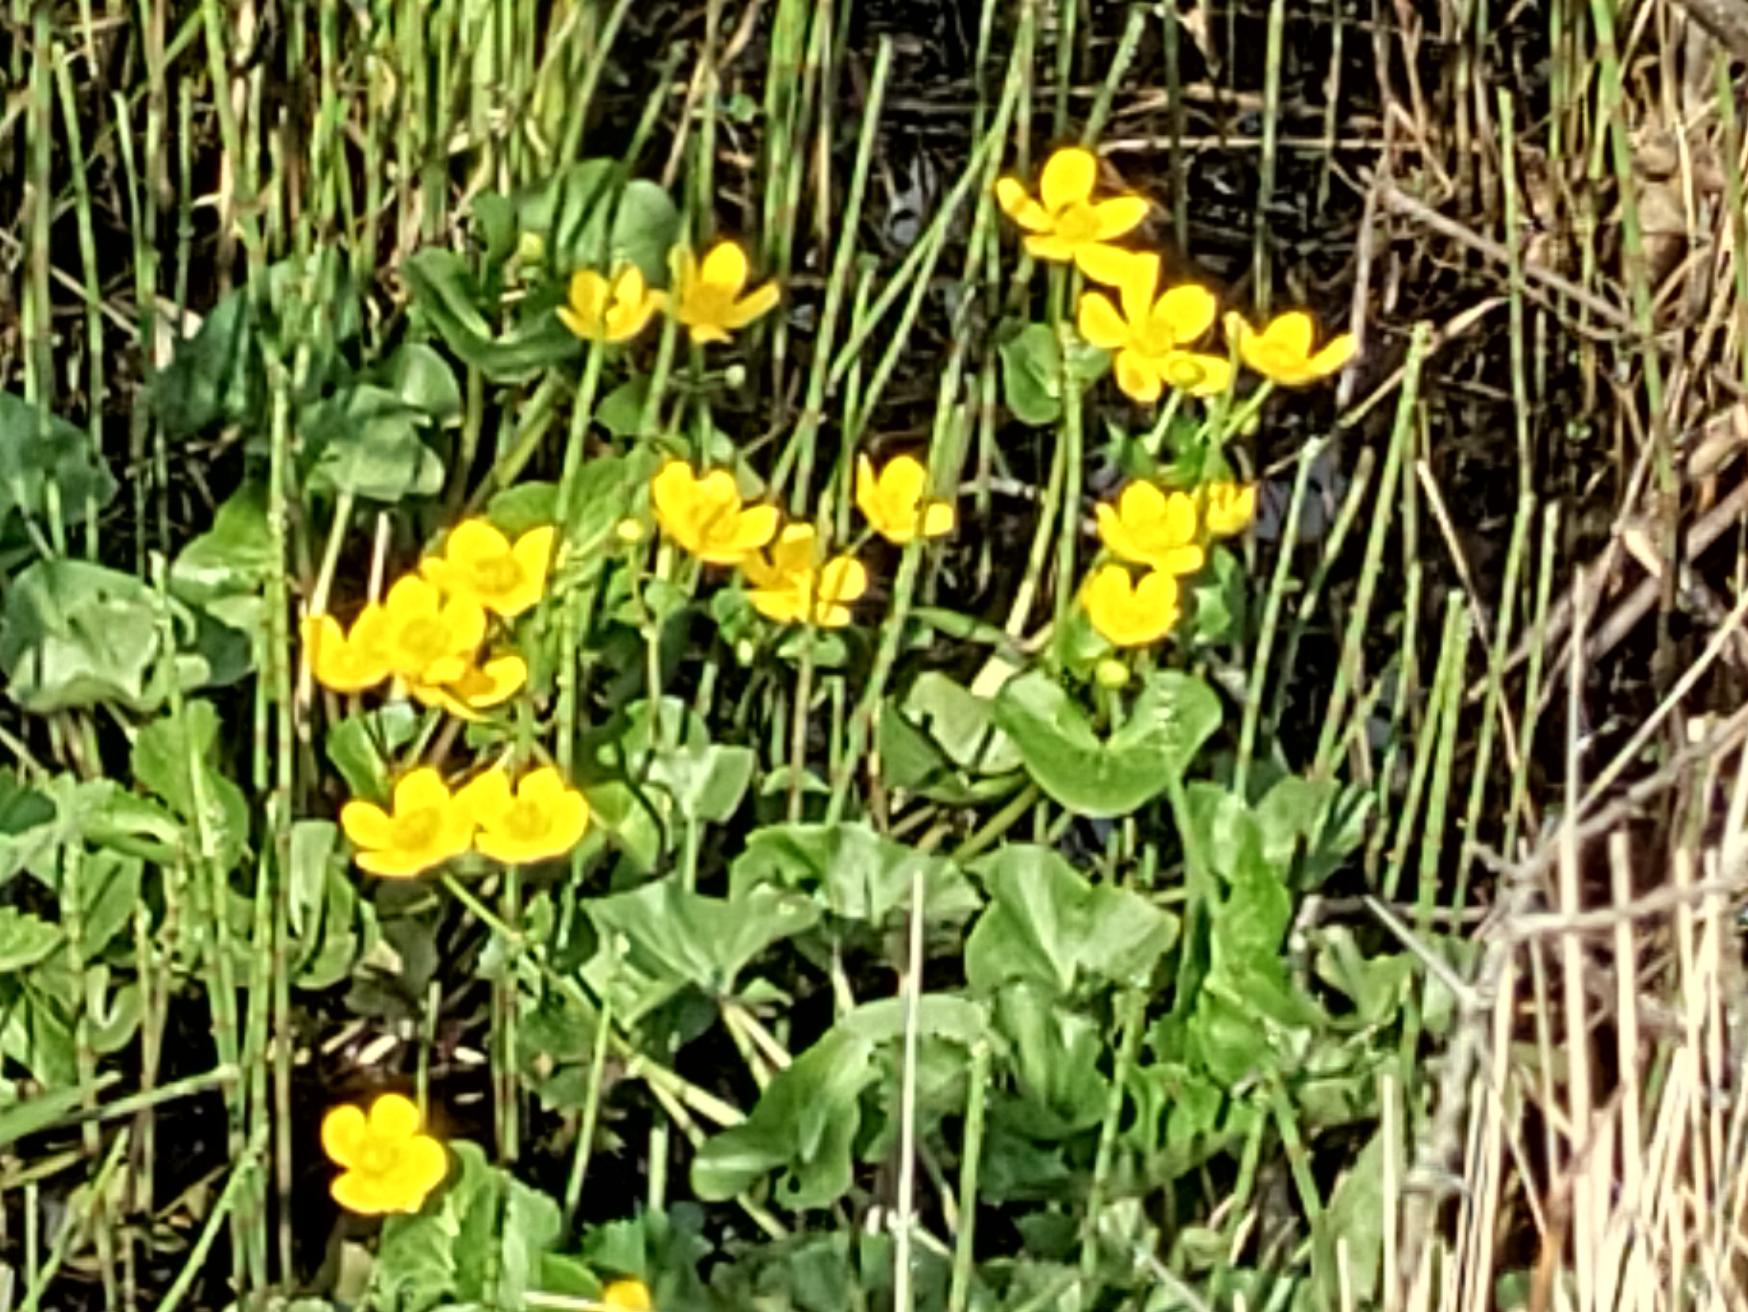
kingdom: Plantae
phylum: Tracheophyta
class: Magnoliopsida
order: Ranunculales
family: Ranunculaceae
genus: Caltha
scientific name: Caltha palustris
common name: Eng-kabbeleje
